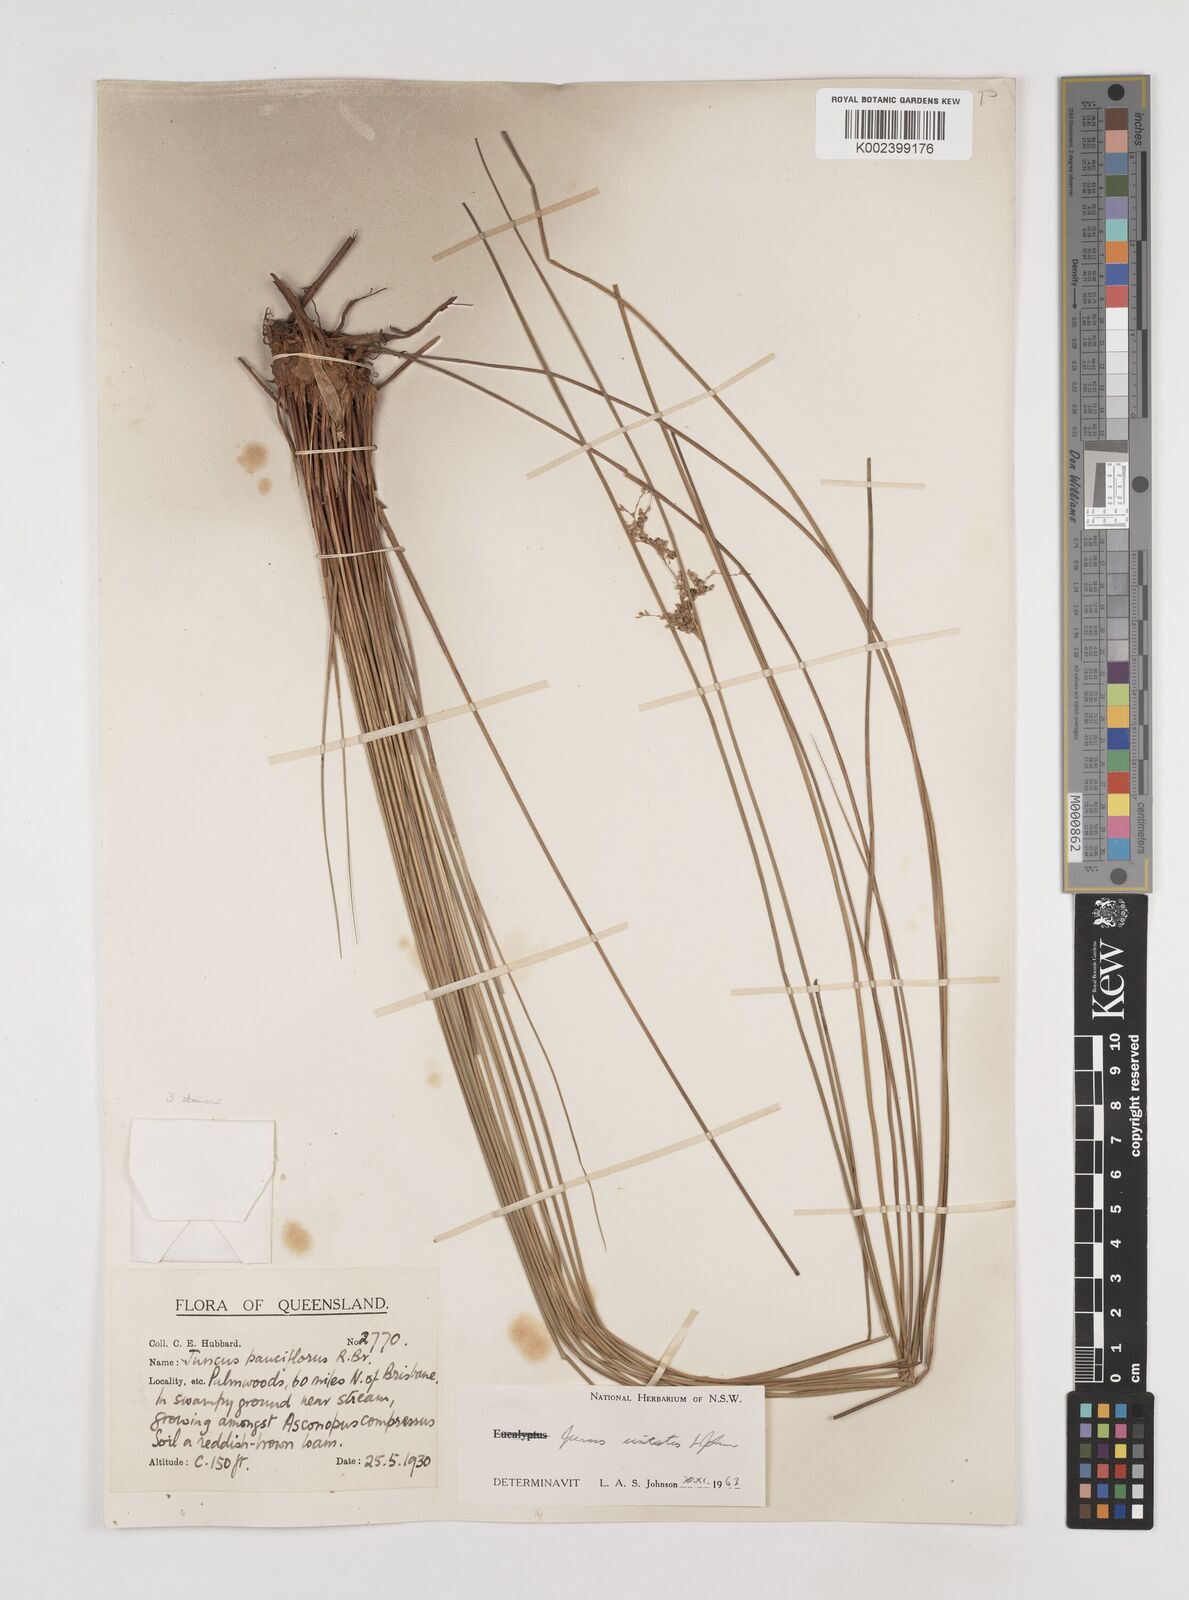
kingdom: Plantae
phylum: Tracheophyta
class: Liliopsida
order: Poales
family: Juncaceae
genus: Juncus
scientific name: Juncus usitatus
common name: Rush
